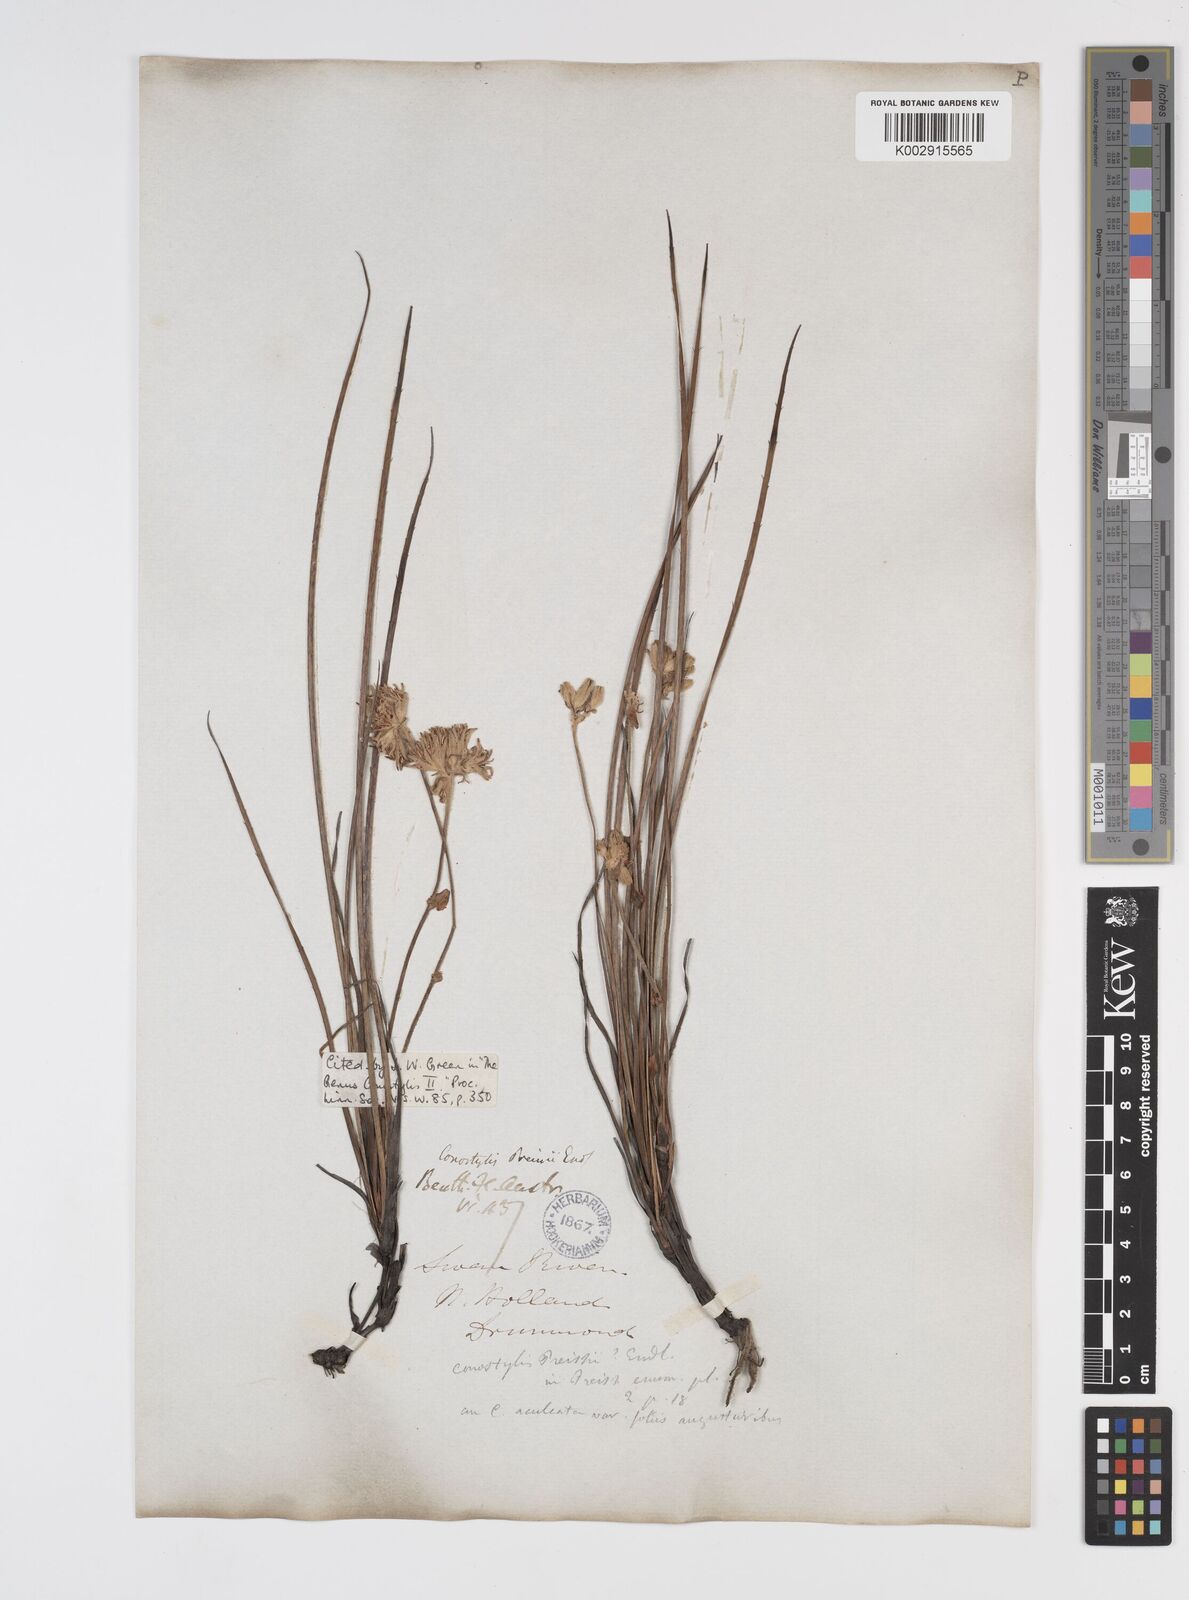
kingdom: Plantae
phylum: Tracheophyta
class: Liliopsida
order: Commelinales
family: Haemodoraceae
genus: Conostylis
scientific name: Conostylis aculeata
